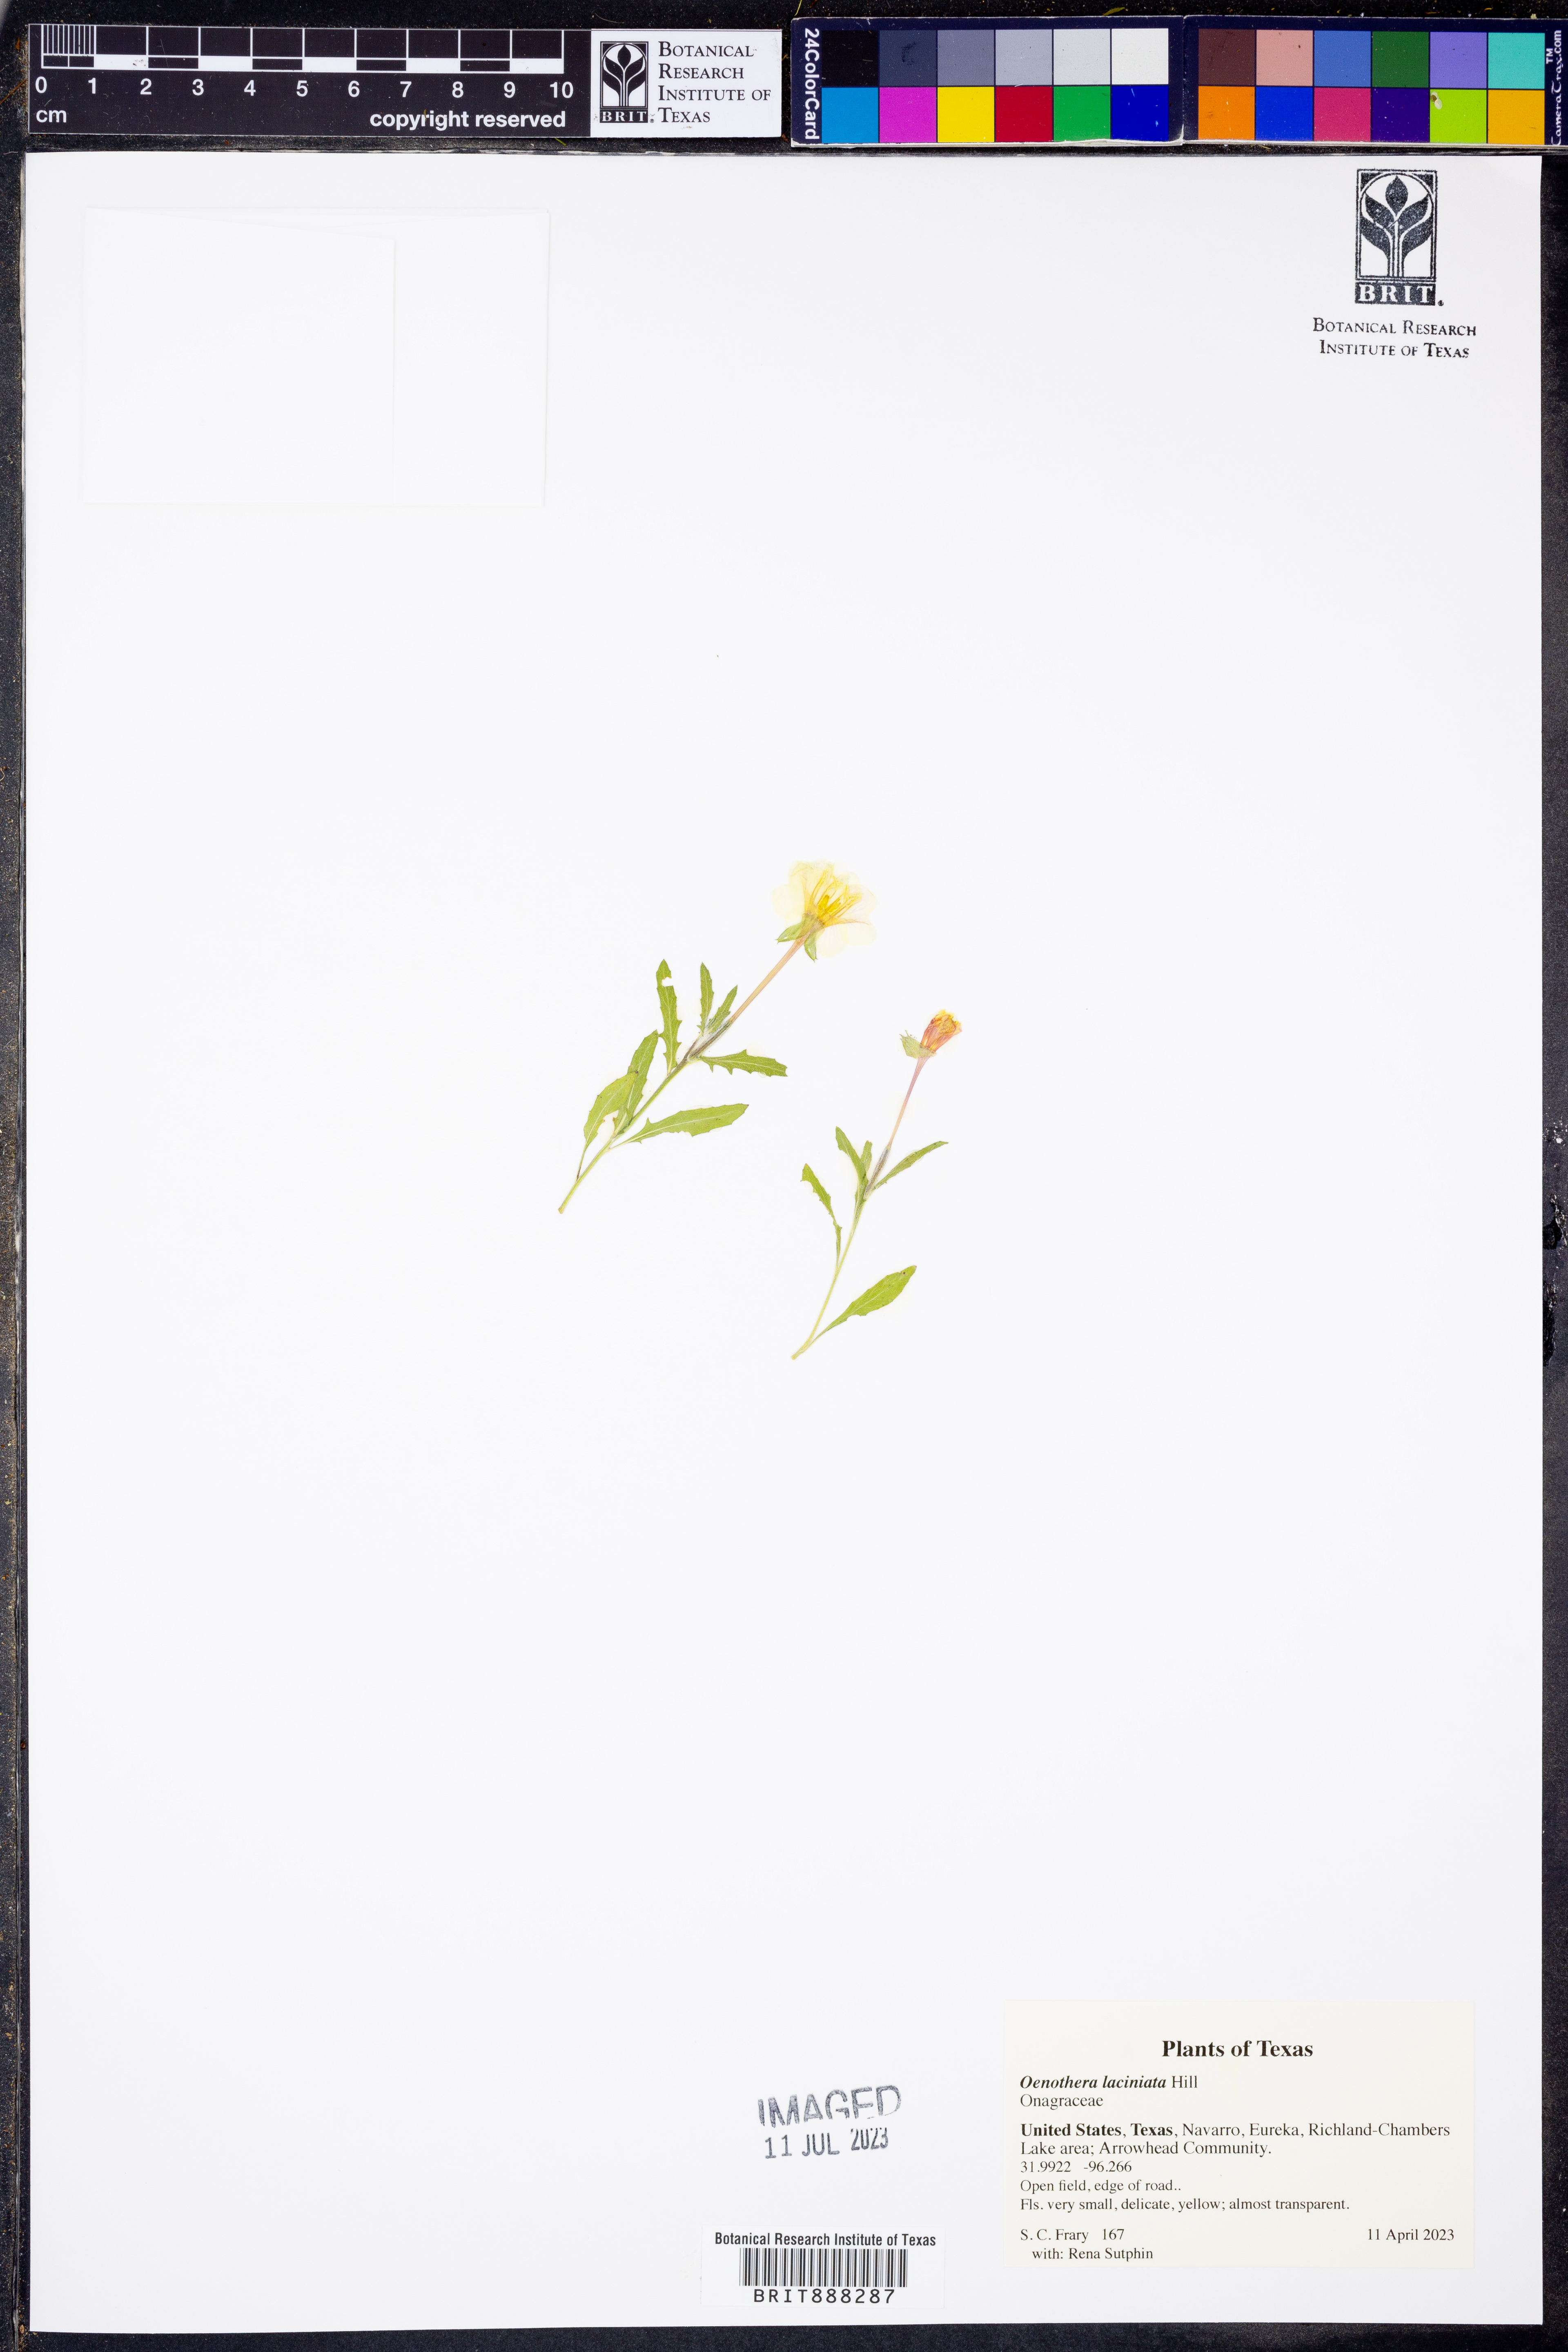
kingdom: Plantae
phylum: Tracheophyta
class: Magnoliopsida
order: Myrtales
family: Onagraceae
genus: Oenothera
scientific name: Oenothera laciniata
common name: Cut-leaved evening-primrose
